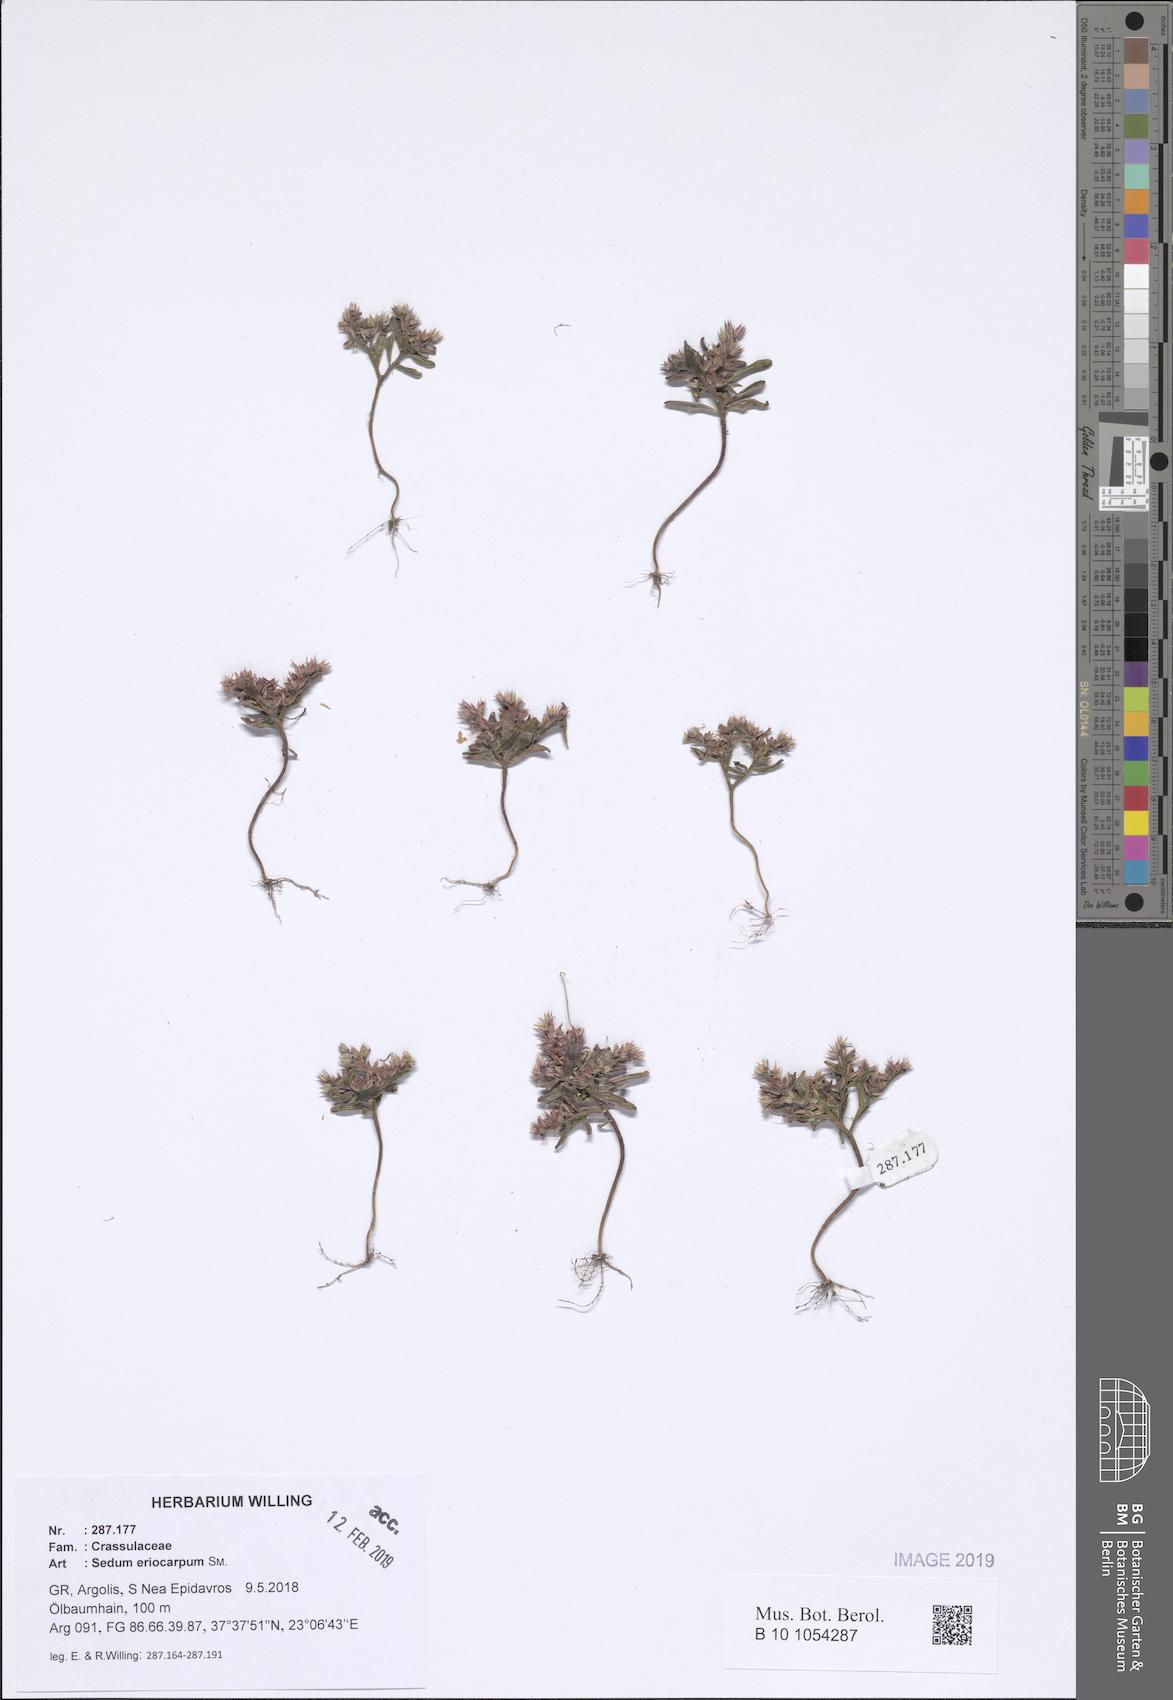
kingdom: Plantae
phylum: Tracheophyta
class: Magnoliopsida
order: Saxifragales
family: Crassulaceae
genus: Sedum
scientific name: Sedum eriocarpum
